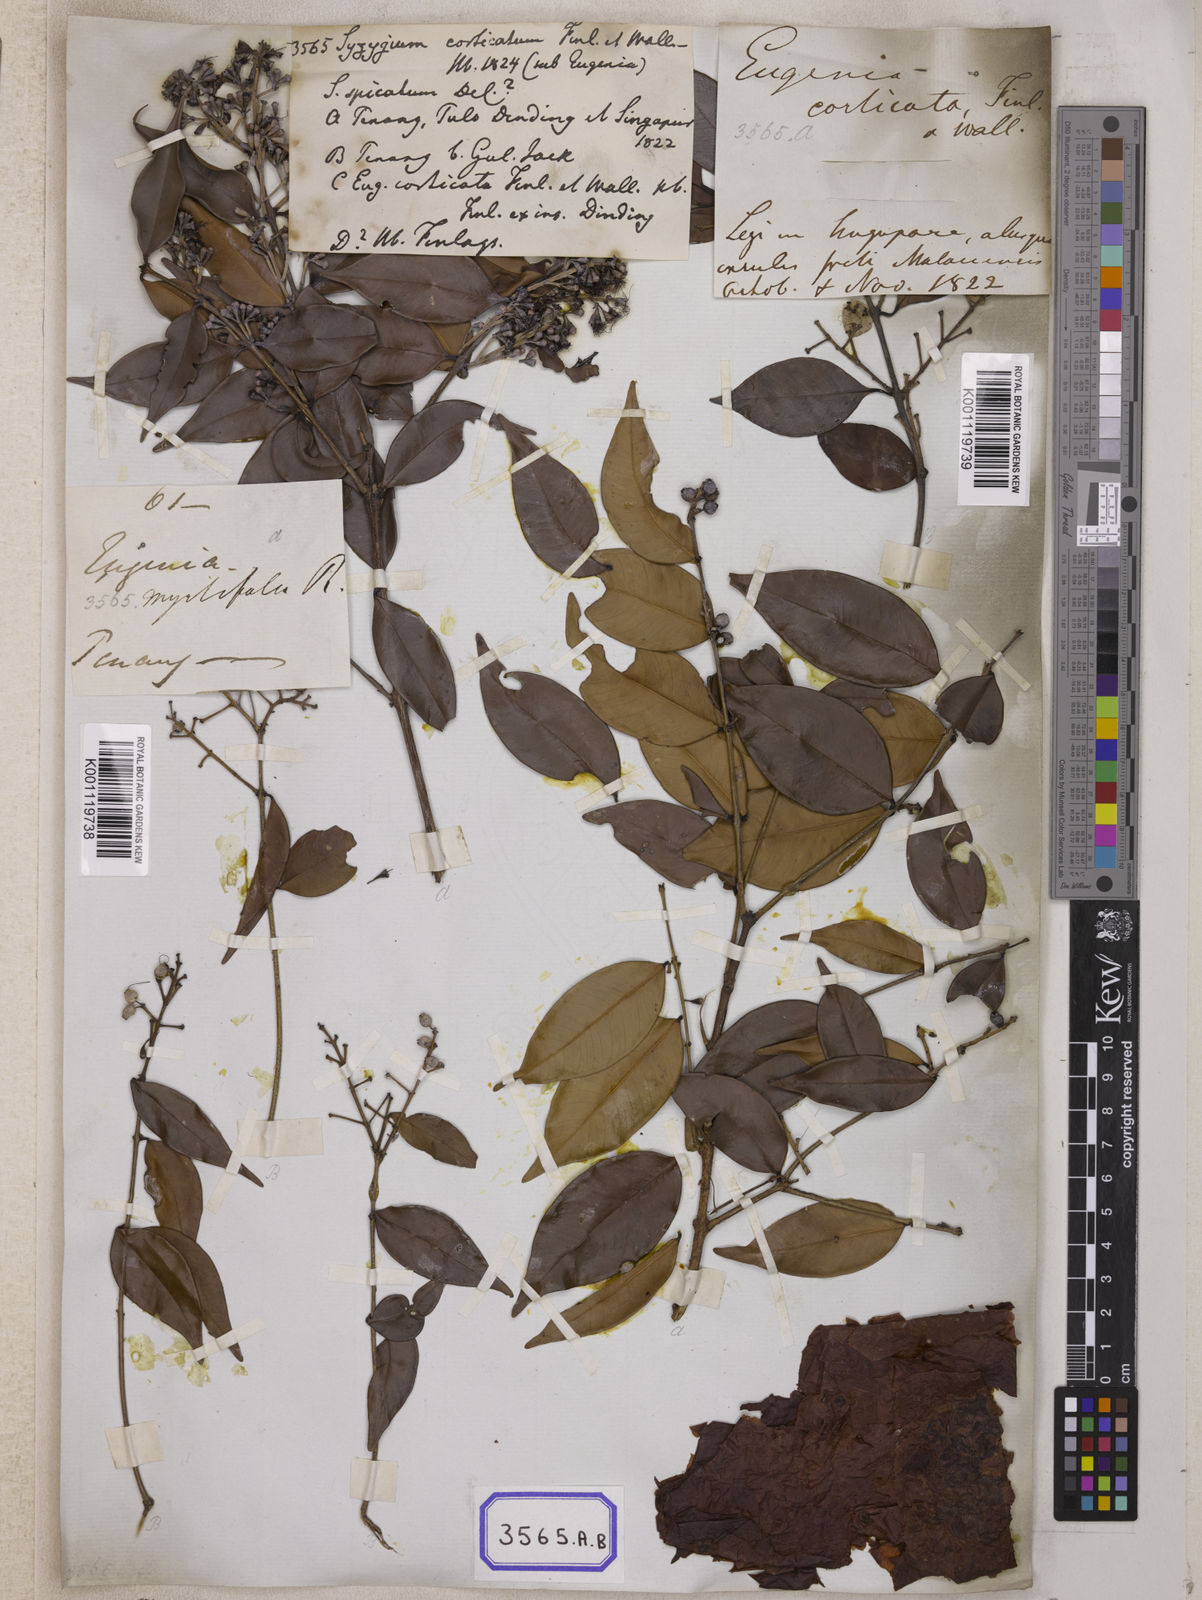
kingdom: Plantae
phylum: Tracheophyta
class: Magnoliopsida
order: Myrtales
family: Myrtaceae
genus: Syzygium
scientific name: Syzygium
